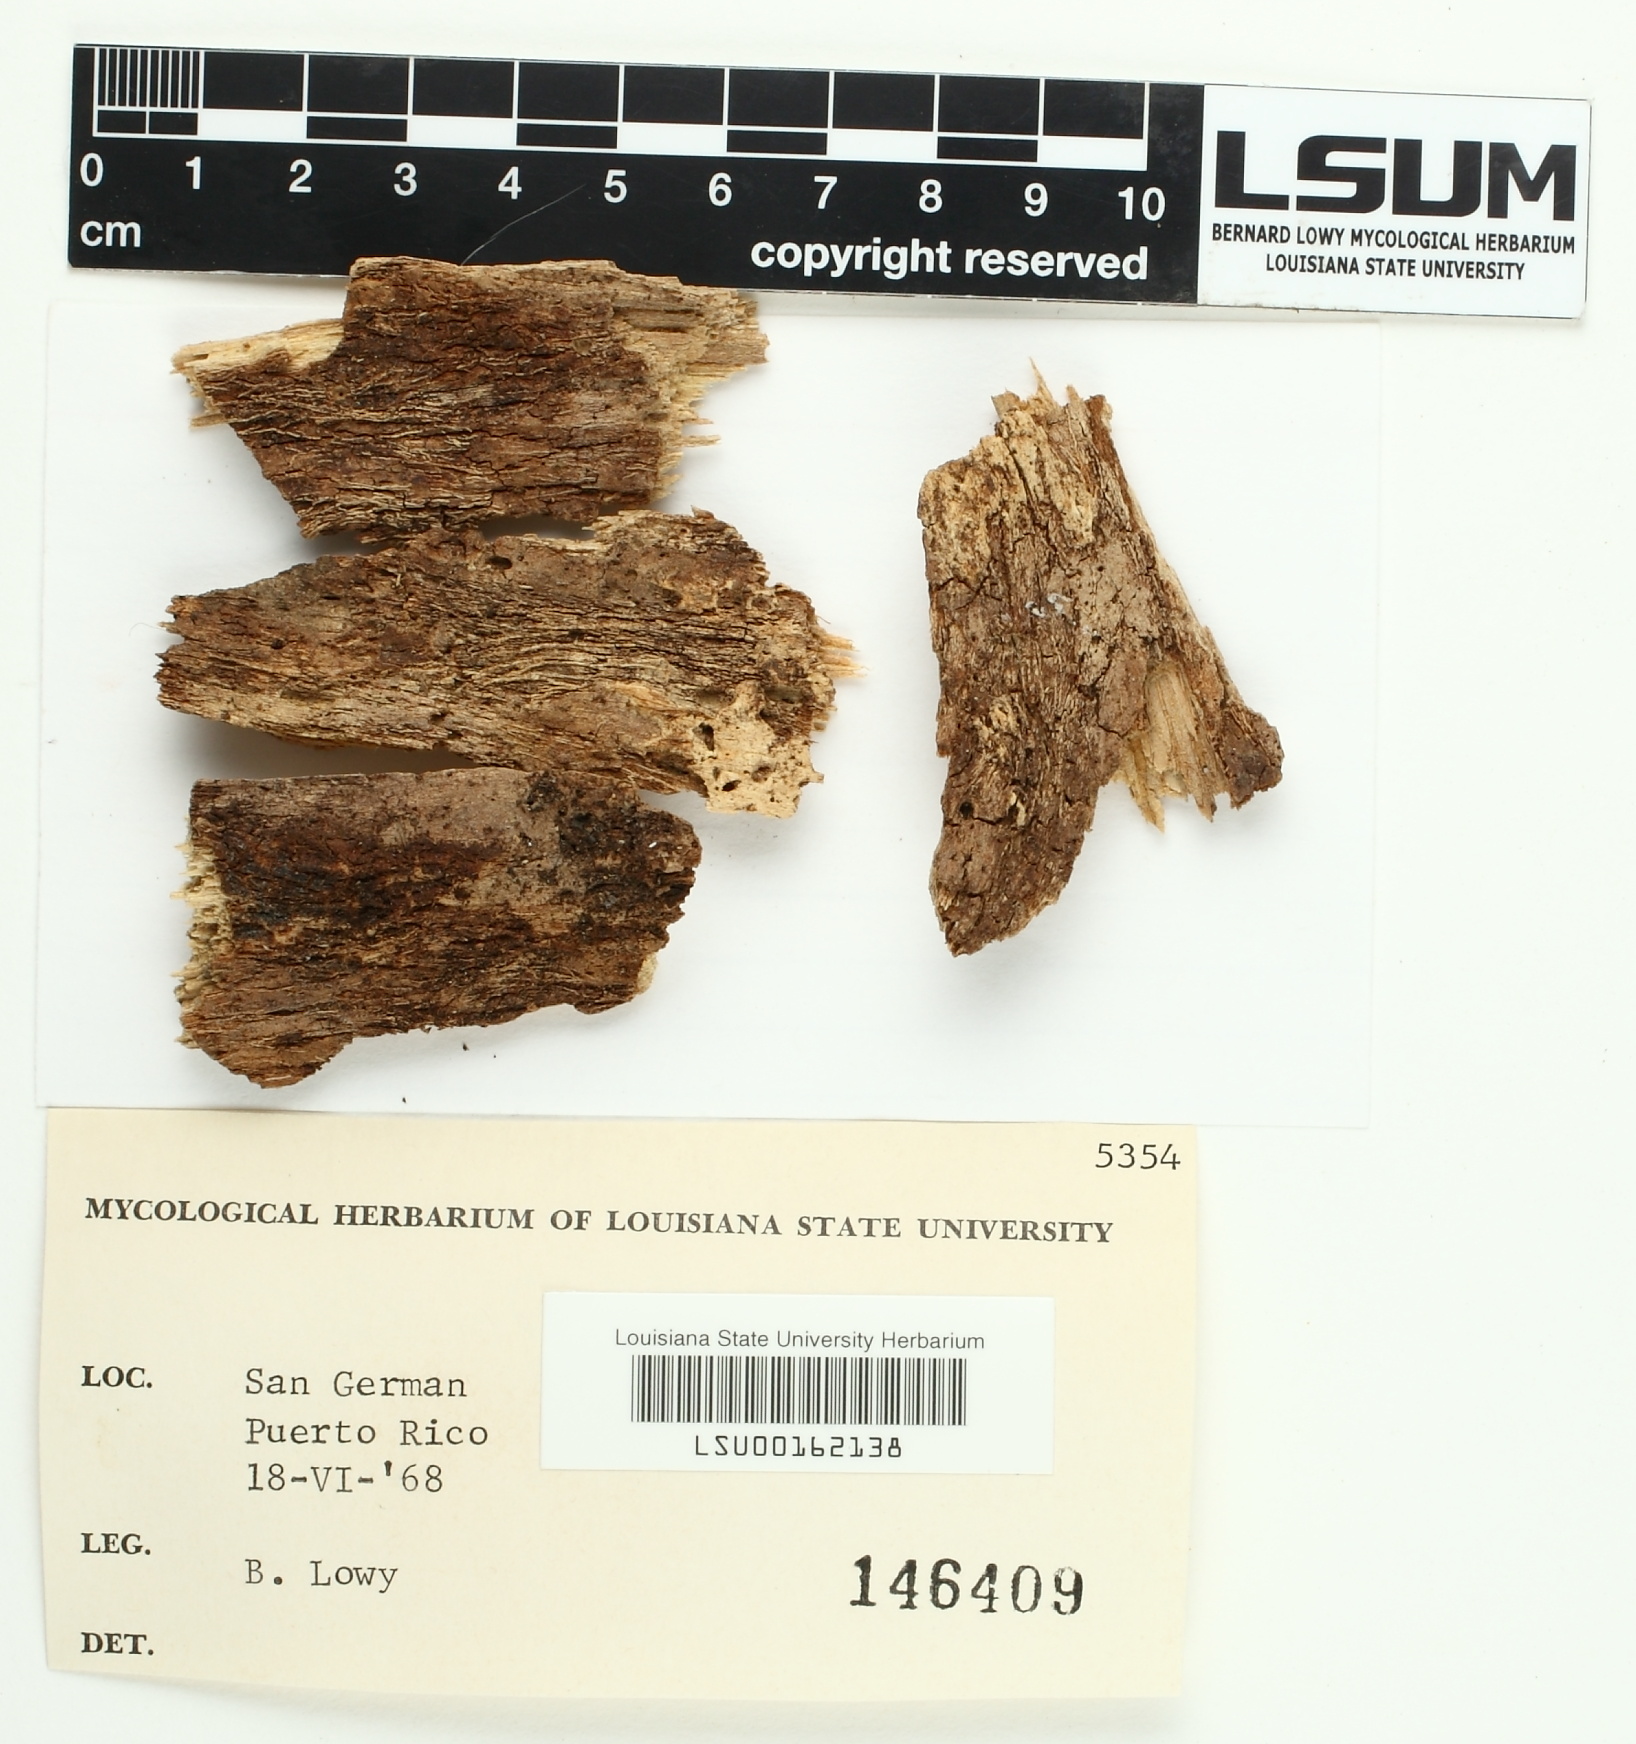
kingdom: Fungi
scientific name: Fungi
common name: Fungi
